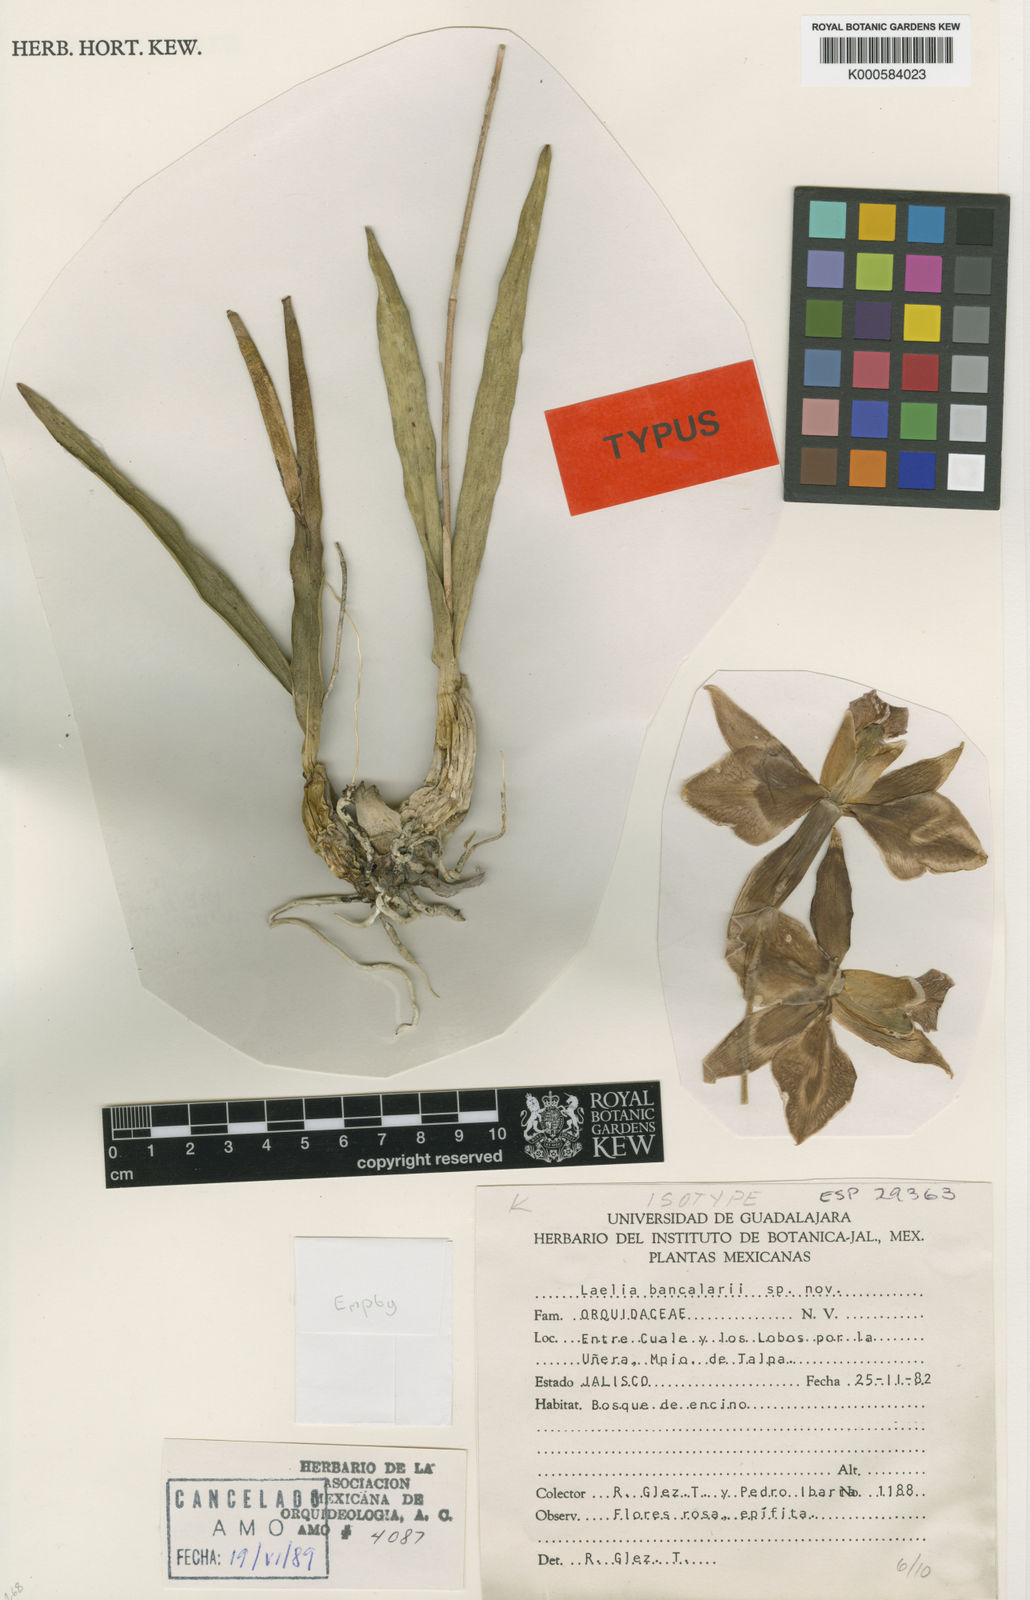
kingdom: Plantae
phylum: Tracheophyta
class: Liliopsida
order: Asparagales
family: Orchidaceae
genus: Laelia
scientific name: Laelia
